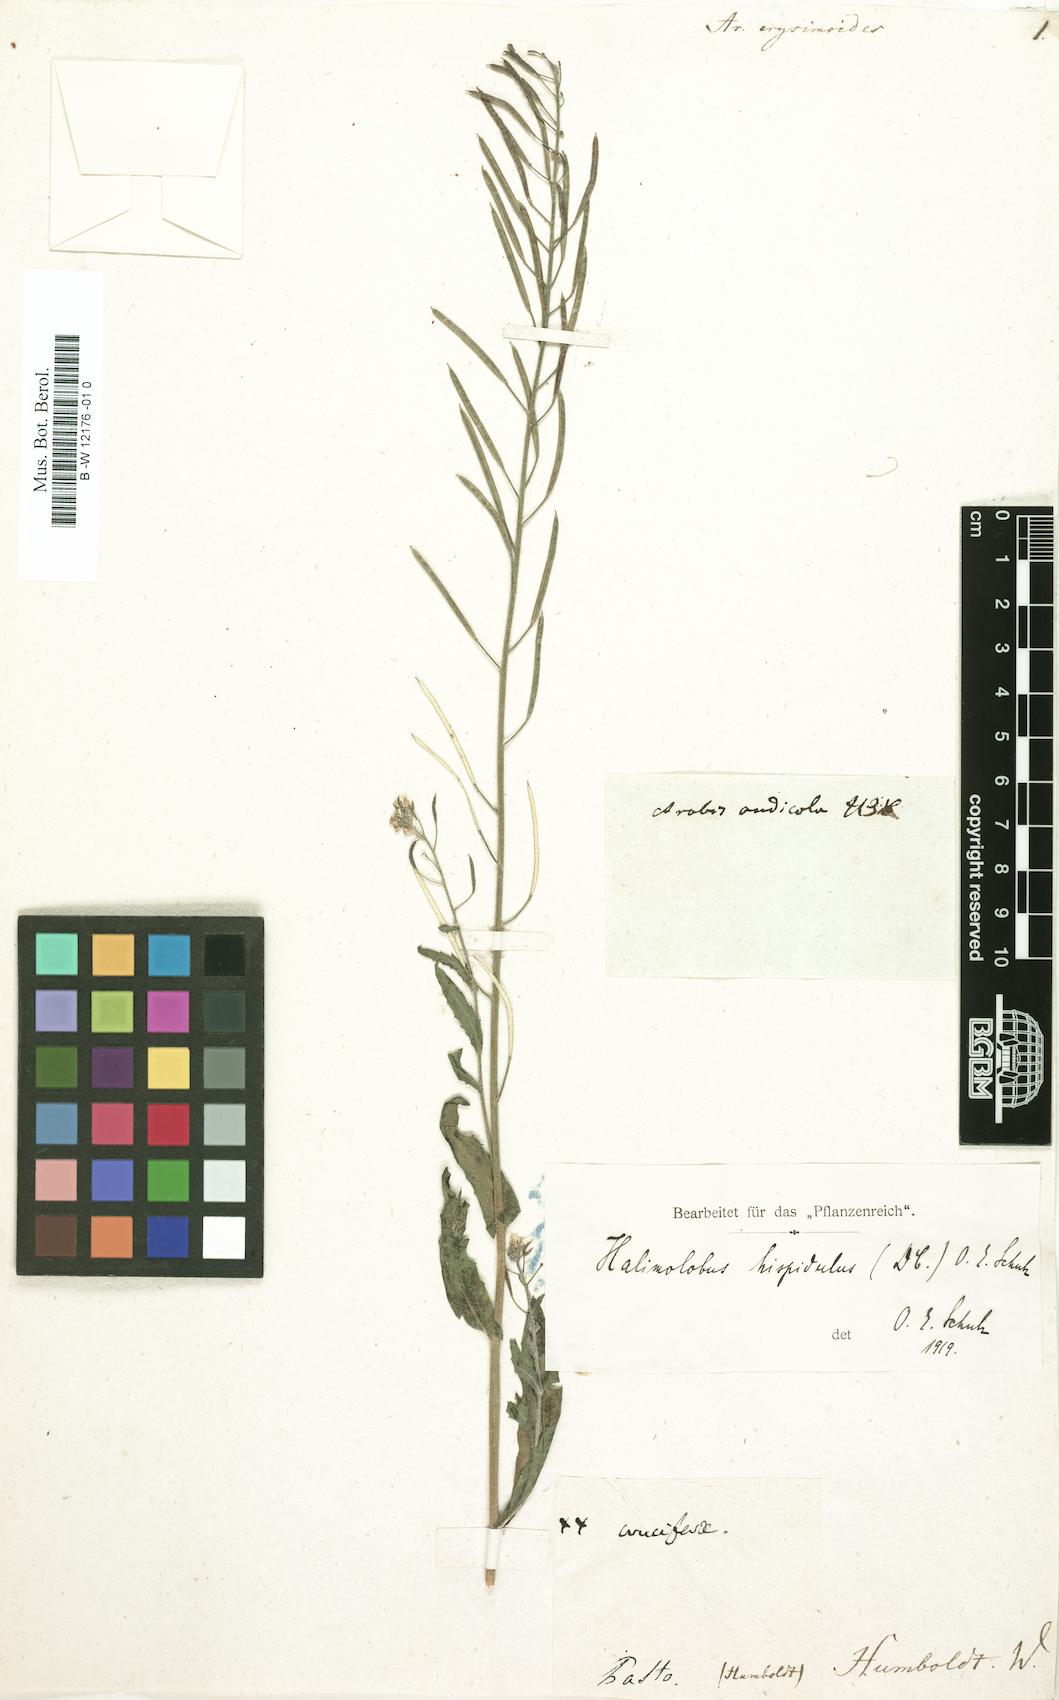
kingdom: Plantae
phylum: Tracheophyta
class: Magnoliopsida
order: Brassicales
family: Brassicaceae
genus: Rhammatophyllum
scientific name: Rhammatophyllum erysimoides
